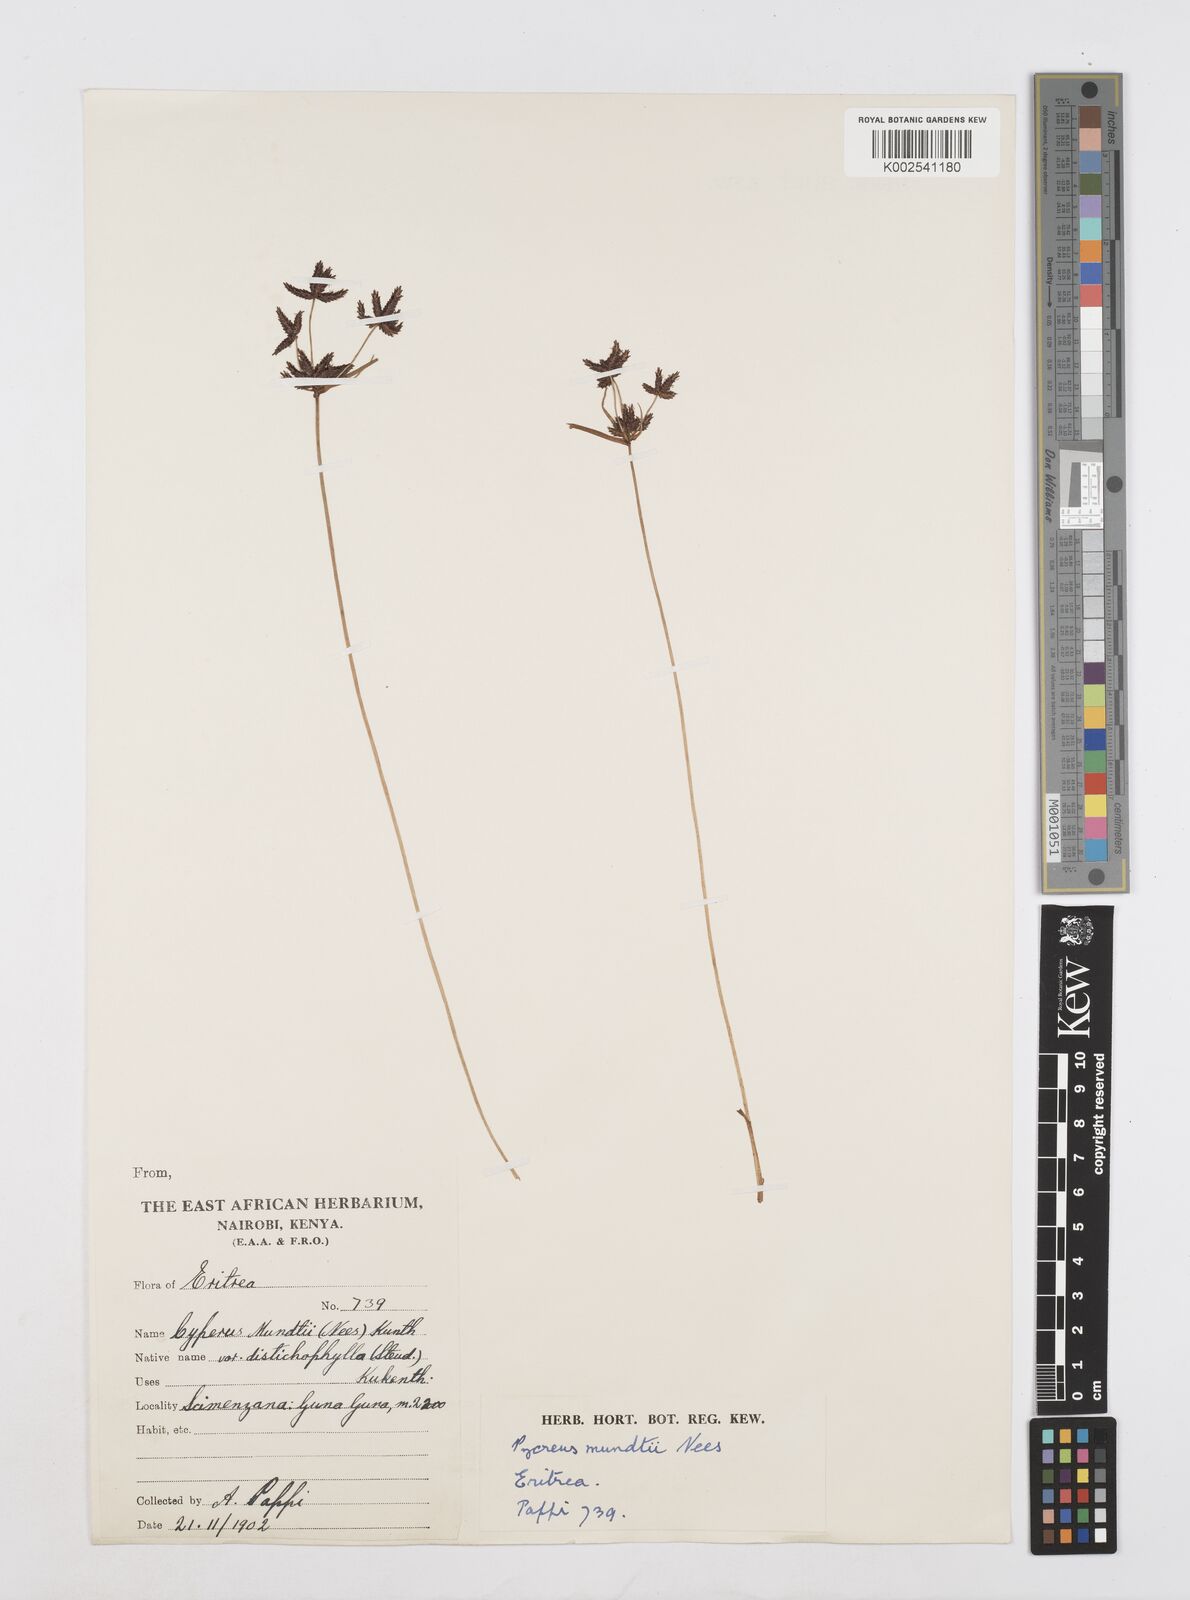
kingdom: Plantae
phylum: Tracheophyta
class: Liliopsida
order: Poales
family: Cyperaceae
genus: Cyperus
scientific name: Cyperus mundii
